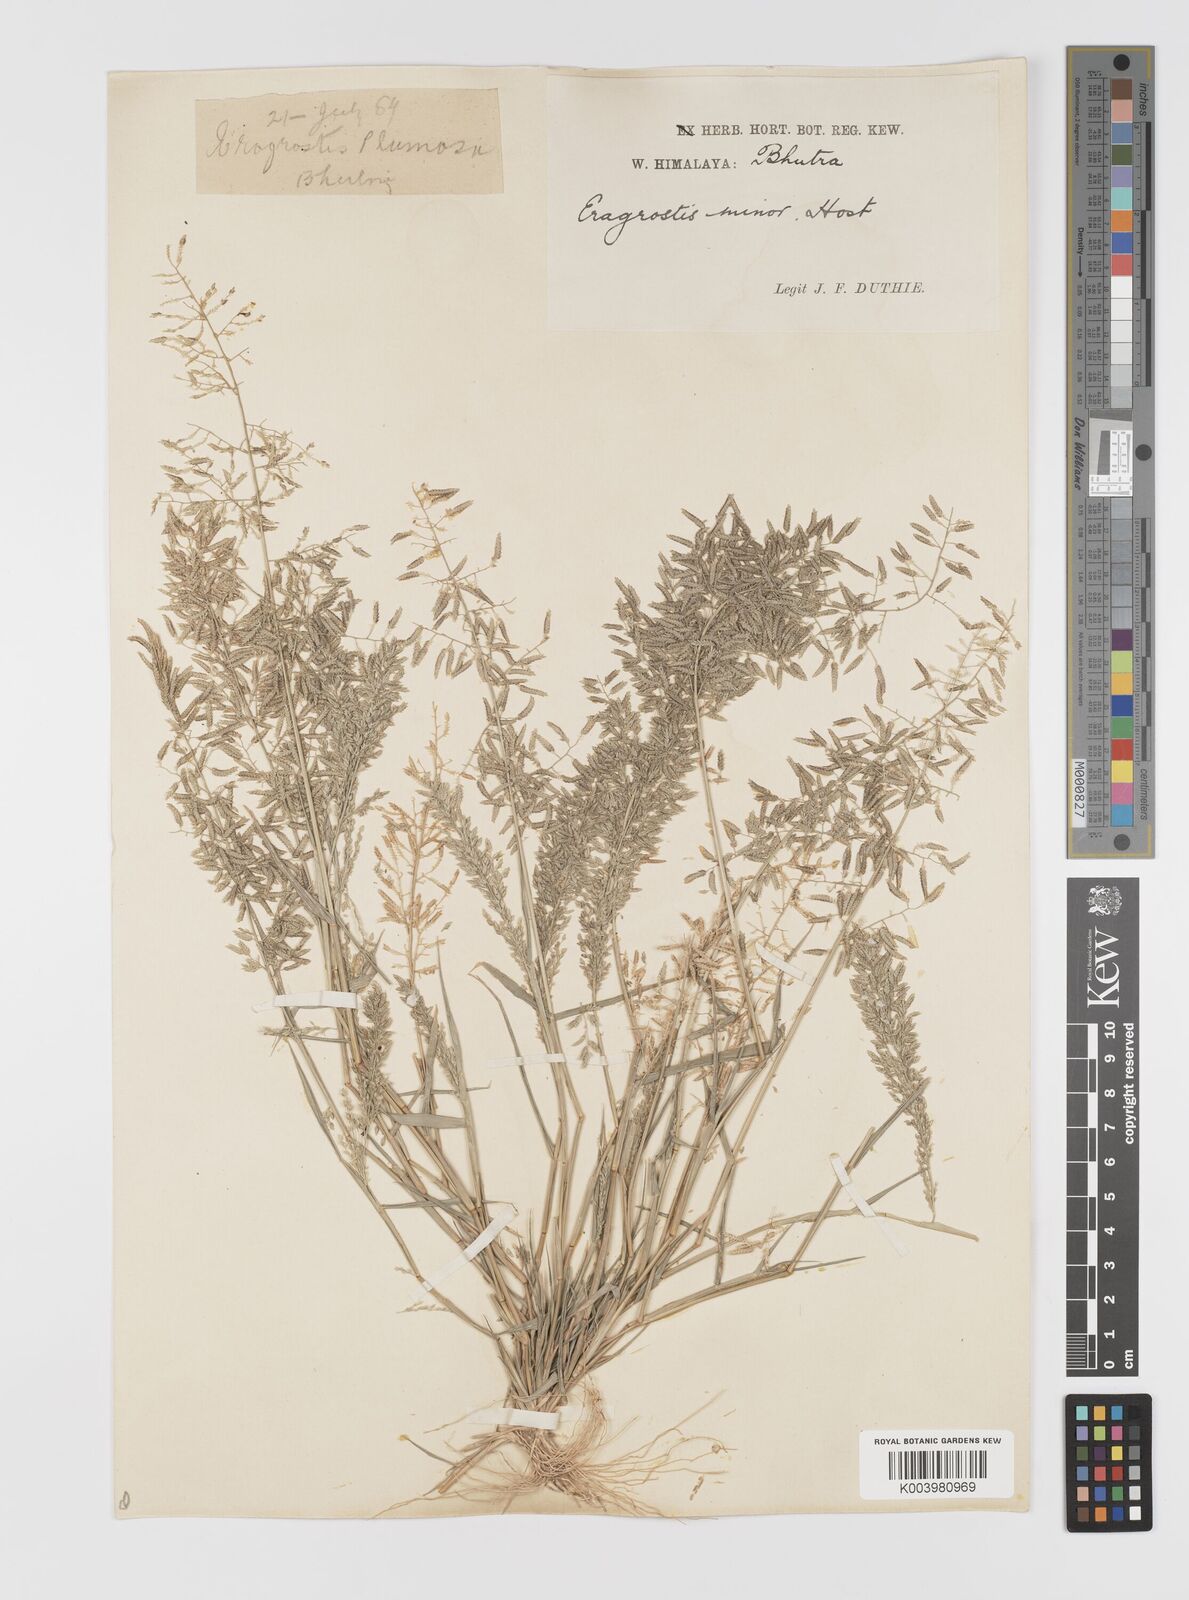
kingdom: Plantae
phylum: Tracheophyta
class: Liliopsida
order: Poales
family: Poaceae
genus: Eragrostis
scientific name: Eragrostis minor
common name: Small love-grass
